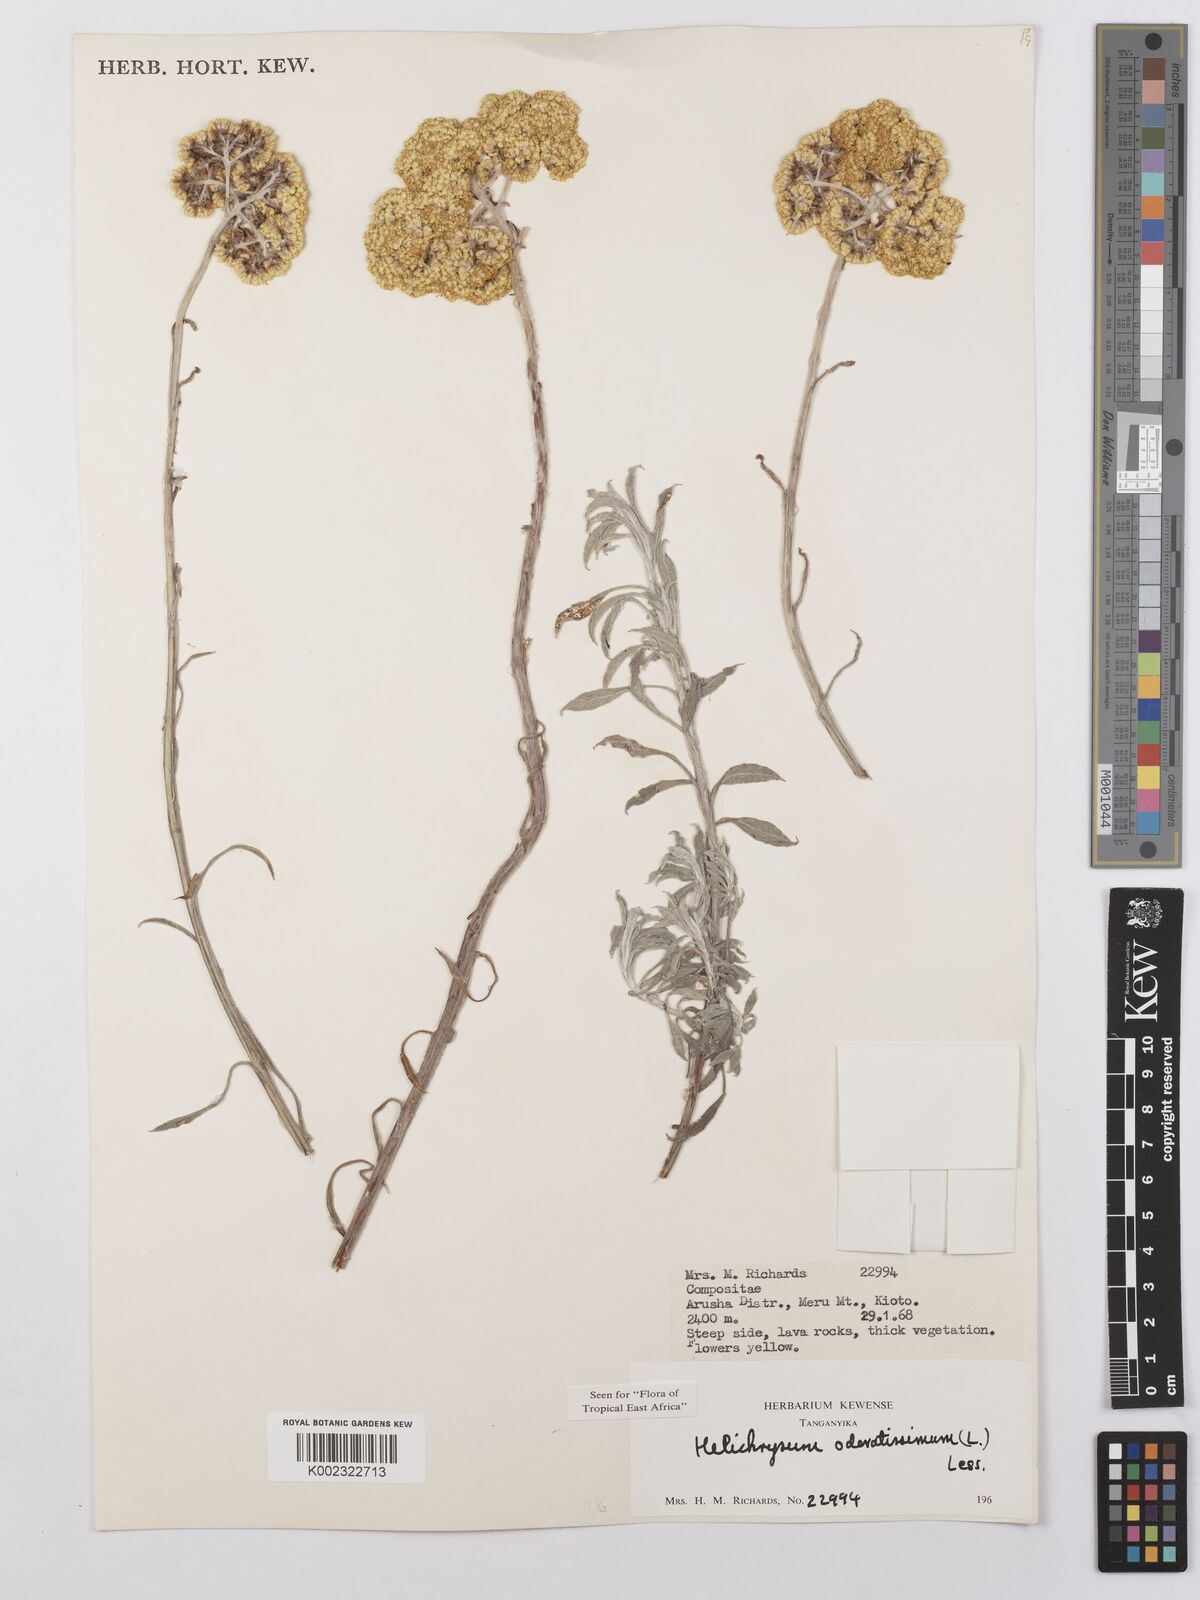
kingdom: Plantae
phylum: Tracheophyta
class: Magnoliopsida
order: Asterales
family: Asteraceae
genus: Helichrysum
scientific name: Helichrysum odoratissimum
